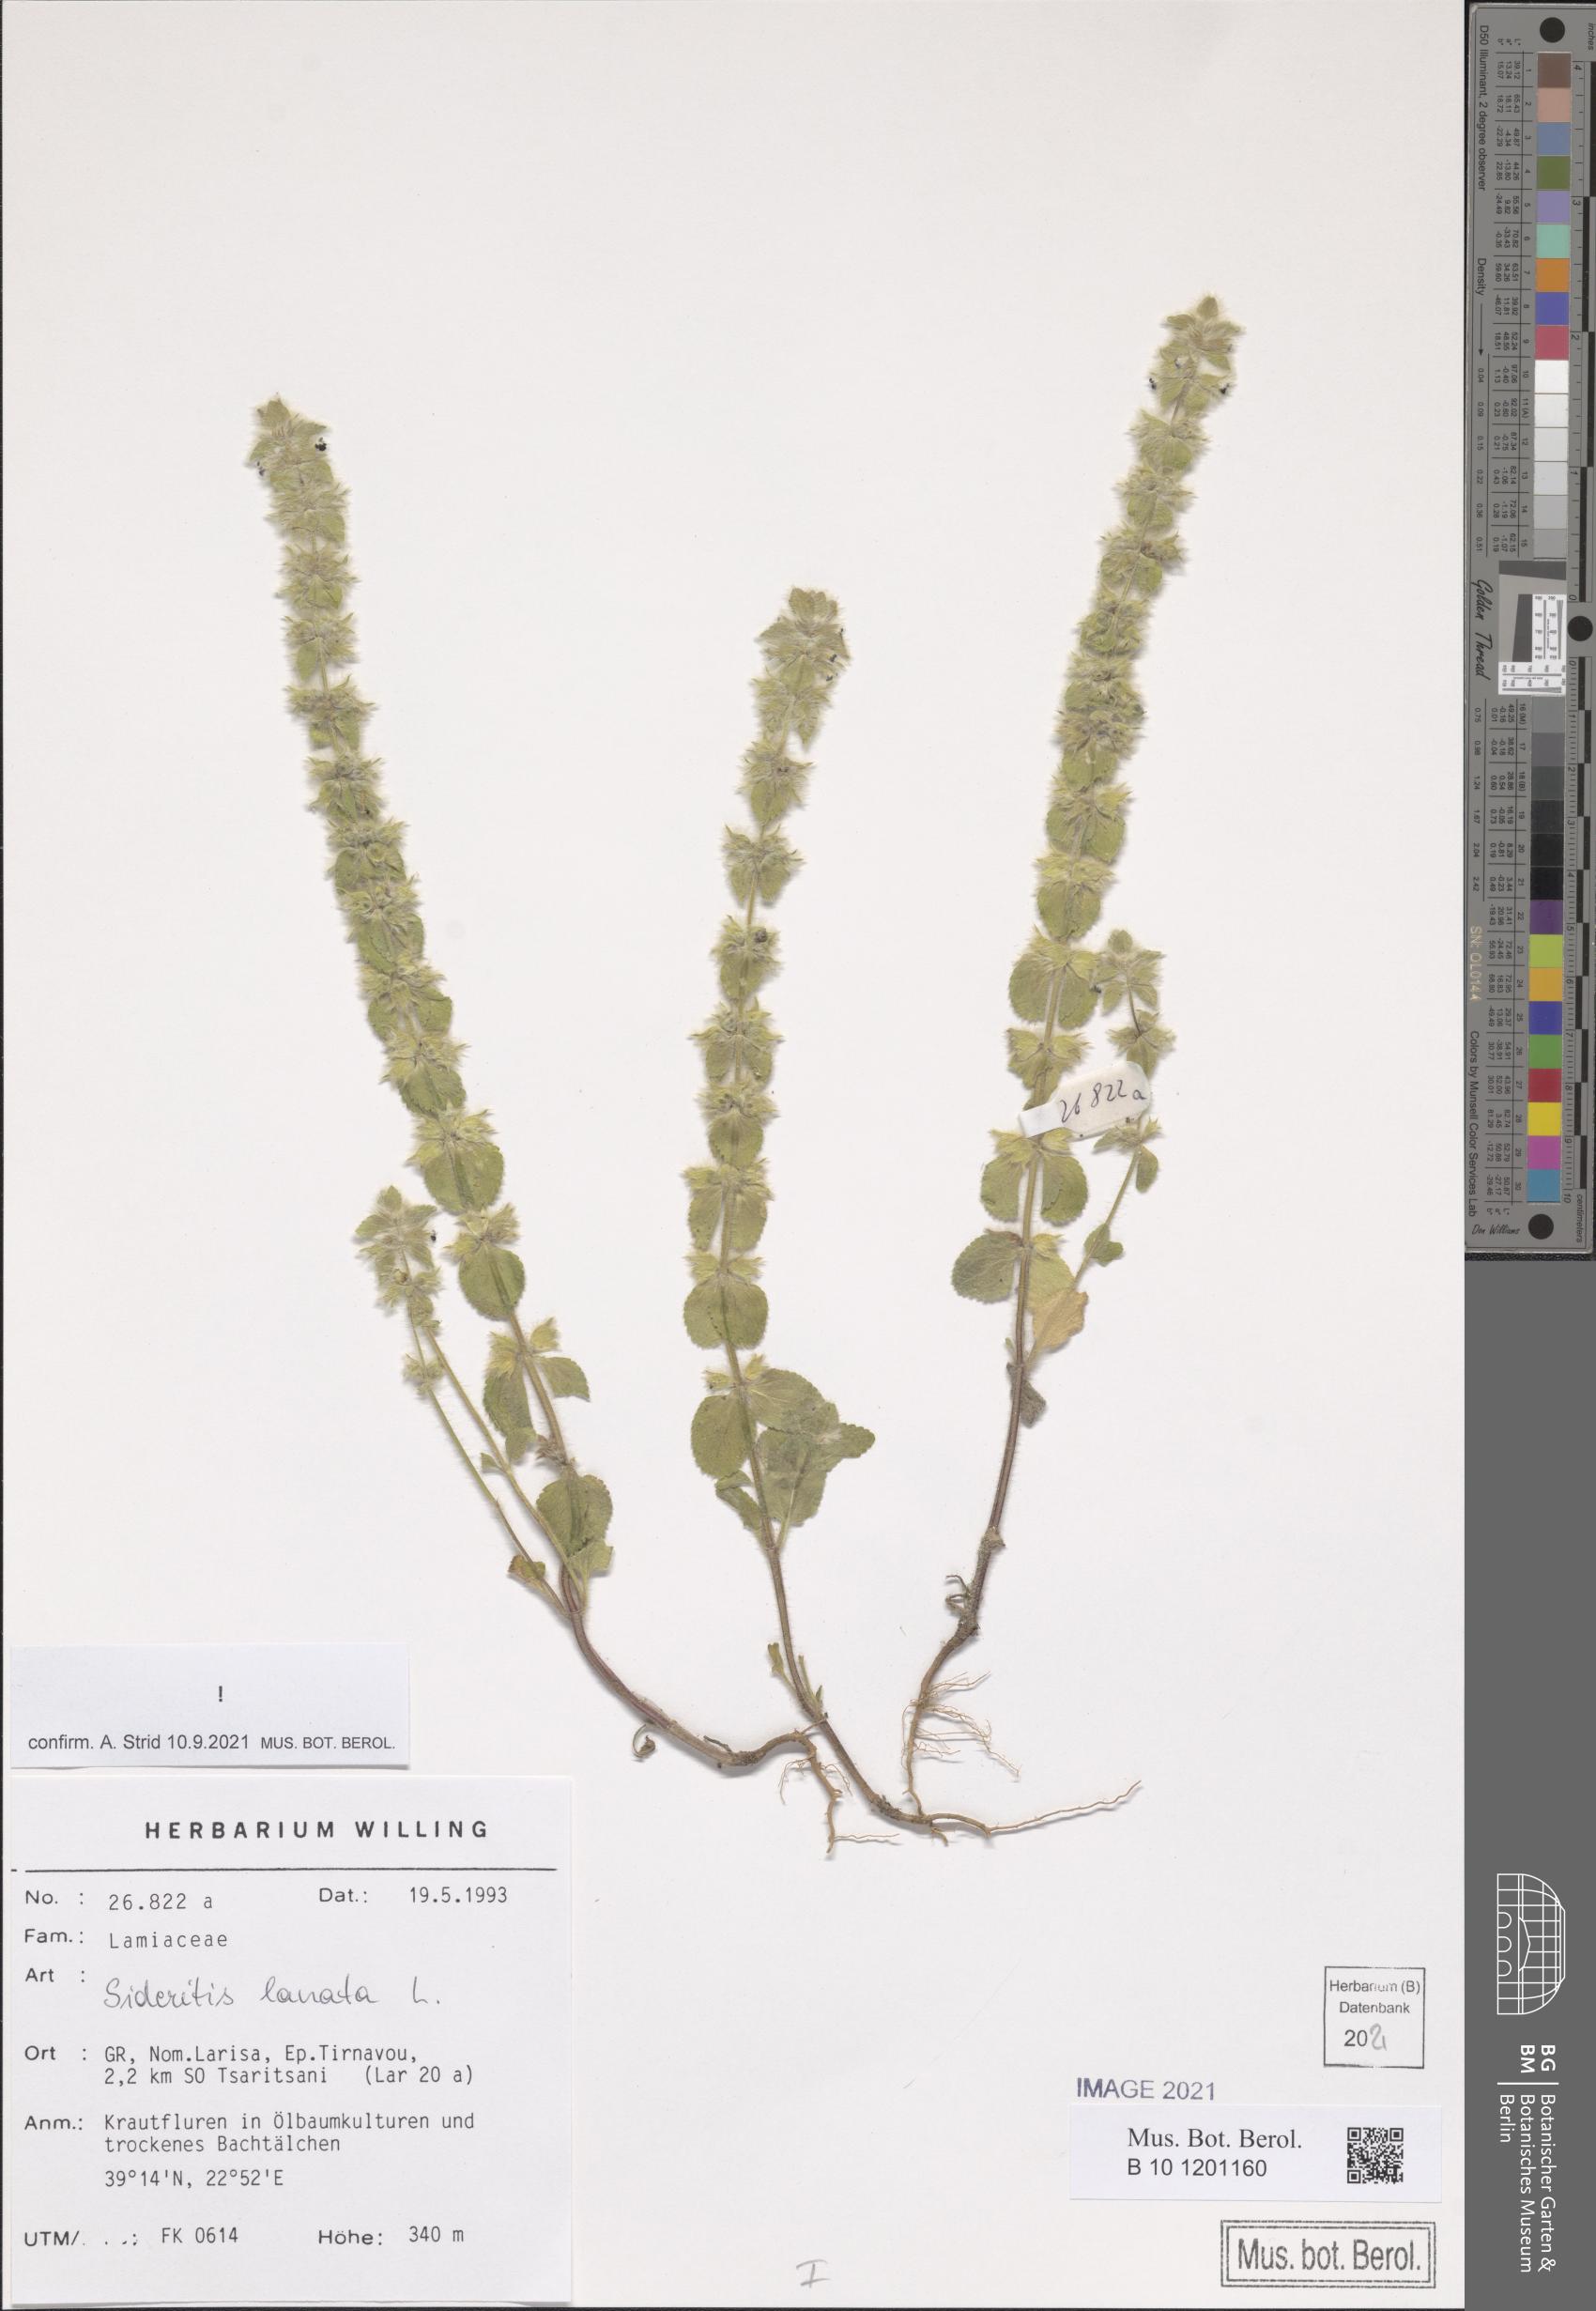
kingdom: Plantae
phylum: Tracheophyta
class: Magnoliopsida
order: Lamiales
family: Lamiaceae
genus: Sideritis
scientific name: Sideritis lanata
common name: Hairy ironwort
